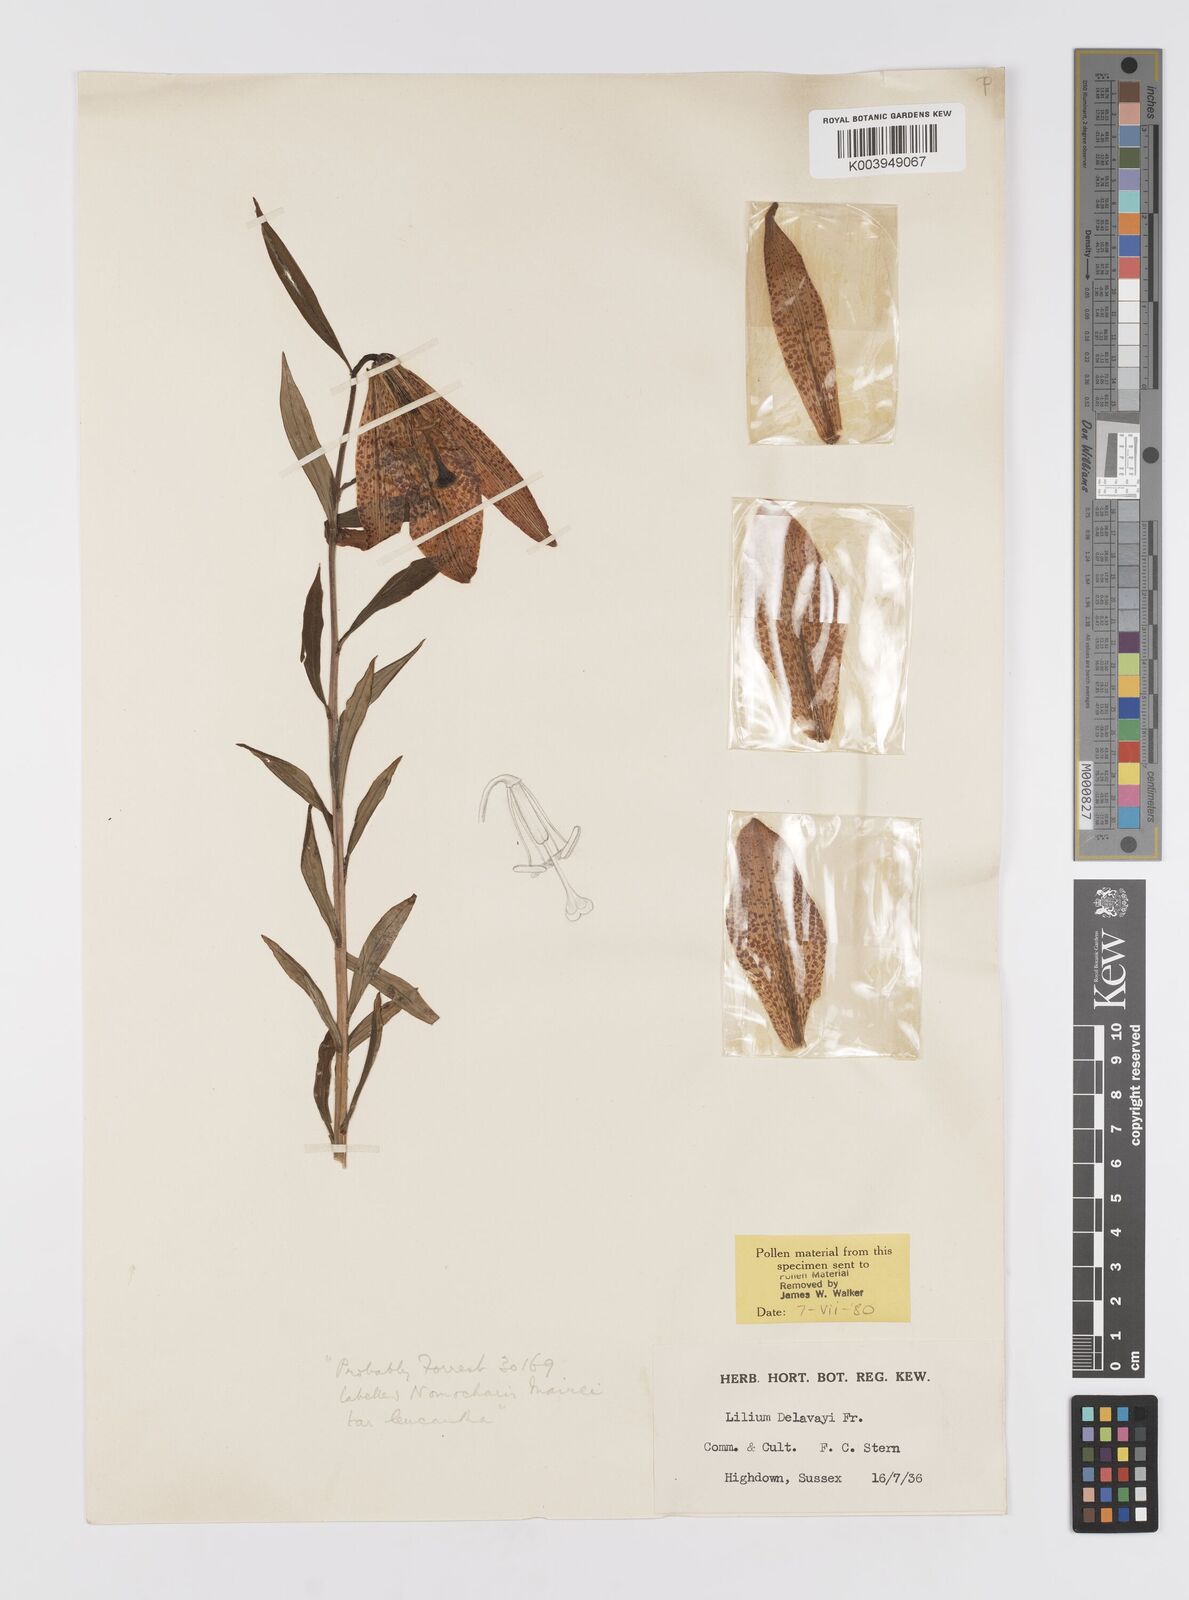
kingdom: Plantae
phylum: Tracheophyta
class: Liliopsida
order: Liliales
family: Liliaceae
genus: Lilium
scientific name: Lilium bakerianum
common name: Baker's lily
